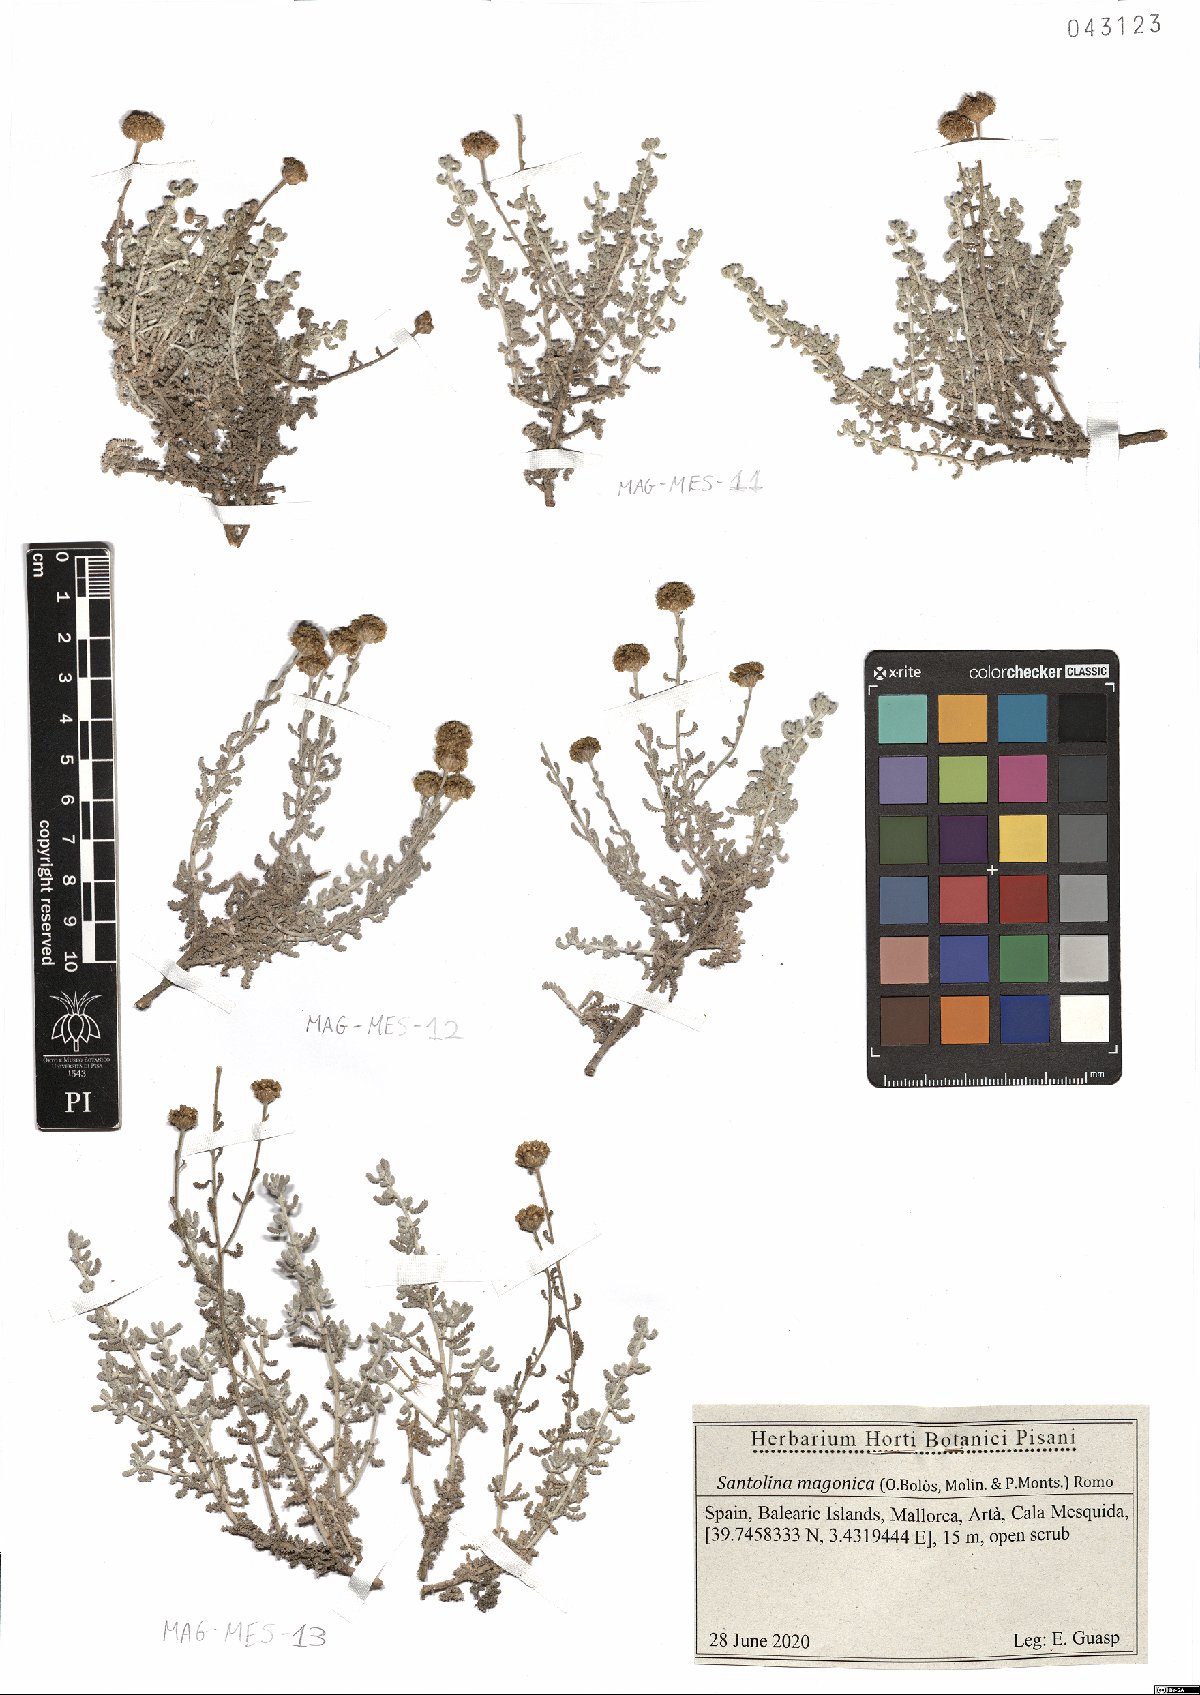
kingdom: Plantae
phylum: Tracheophyta
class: Magnoliopsida
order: Asterales
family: Asteraceae
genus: Santolina
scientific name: Santolina magonica
